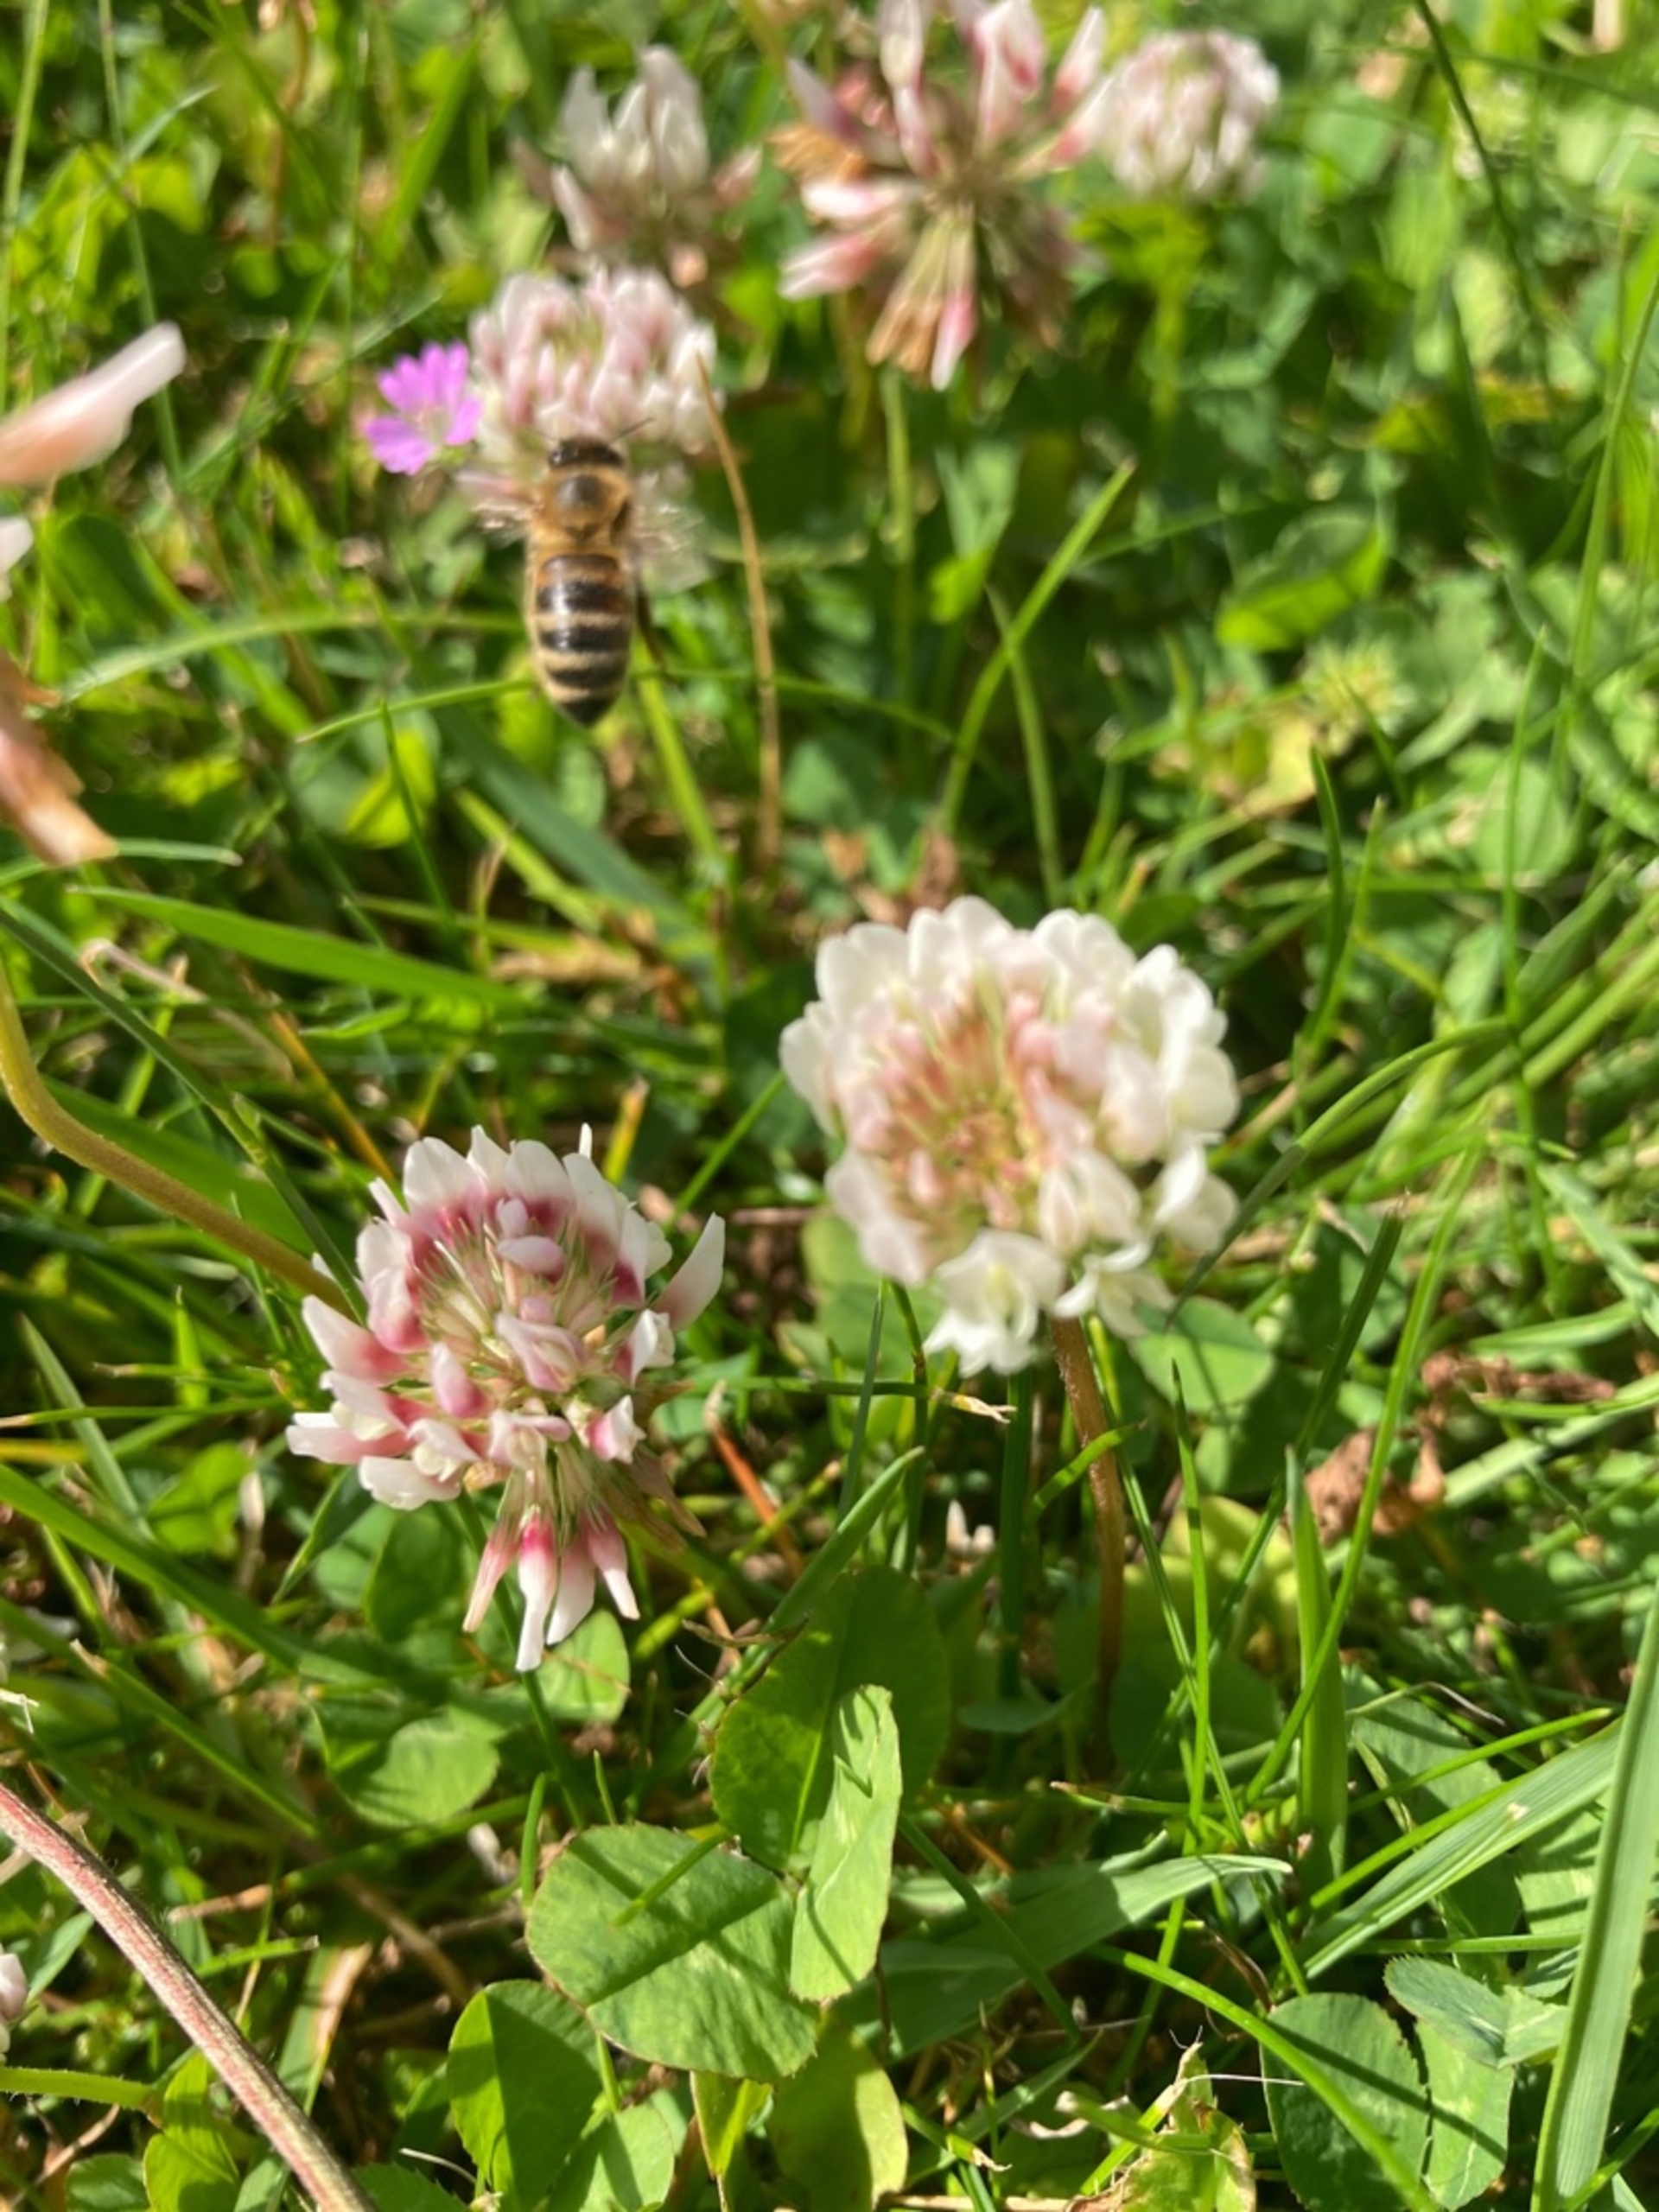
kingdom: Animalia
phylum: Arthropoda
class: Insecta
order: Hymenoptera
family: Apidae
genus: Apis
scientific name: Apis mellifera
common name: Honningbi
